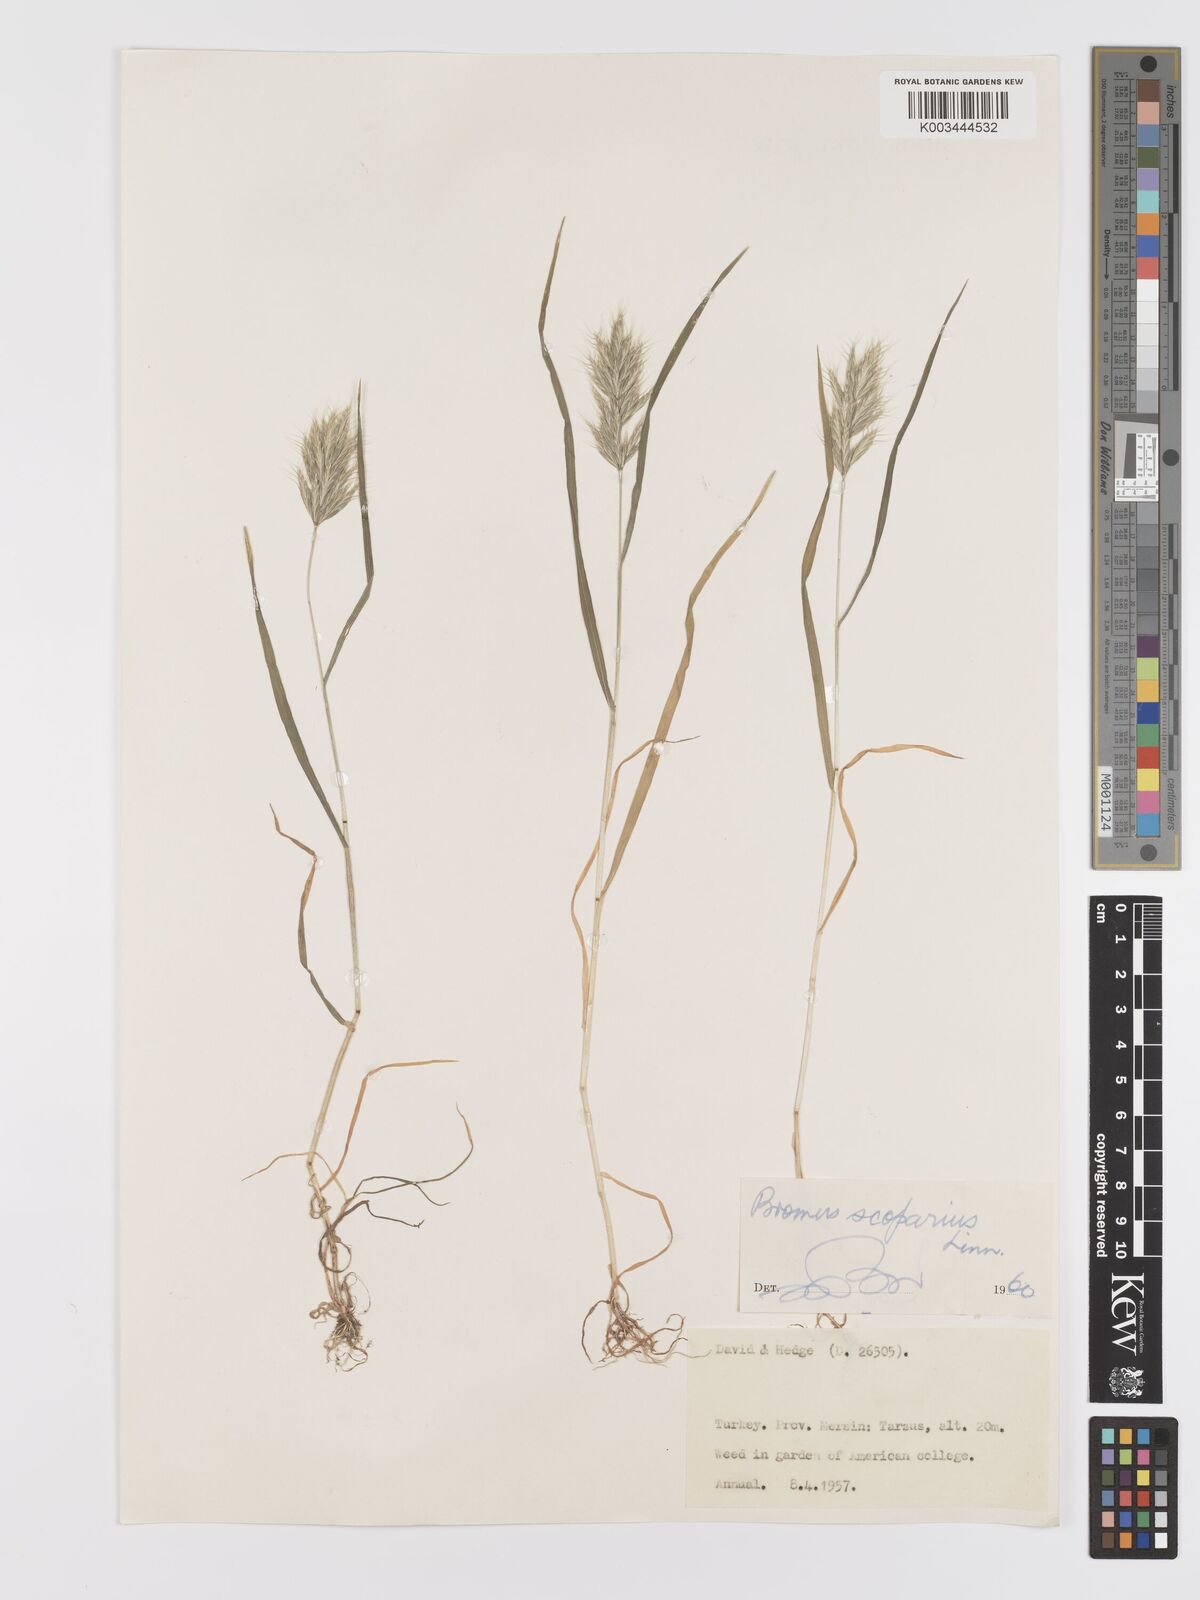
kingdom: Plantae
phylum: Tracheophyta
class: Liliopsida
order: Poales
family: Poaceae
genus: Bromus
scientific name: Bromus scoparius
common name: Broom brome
